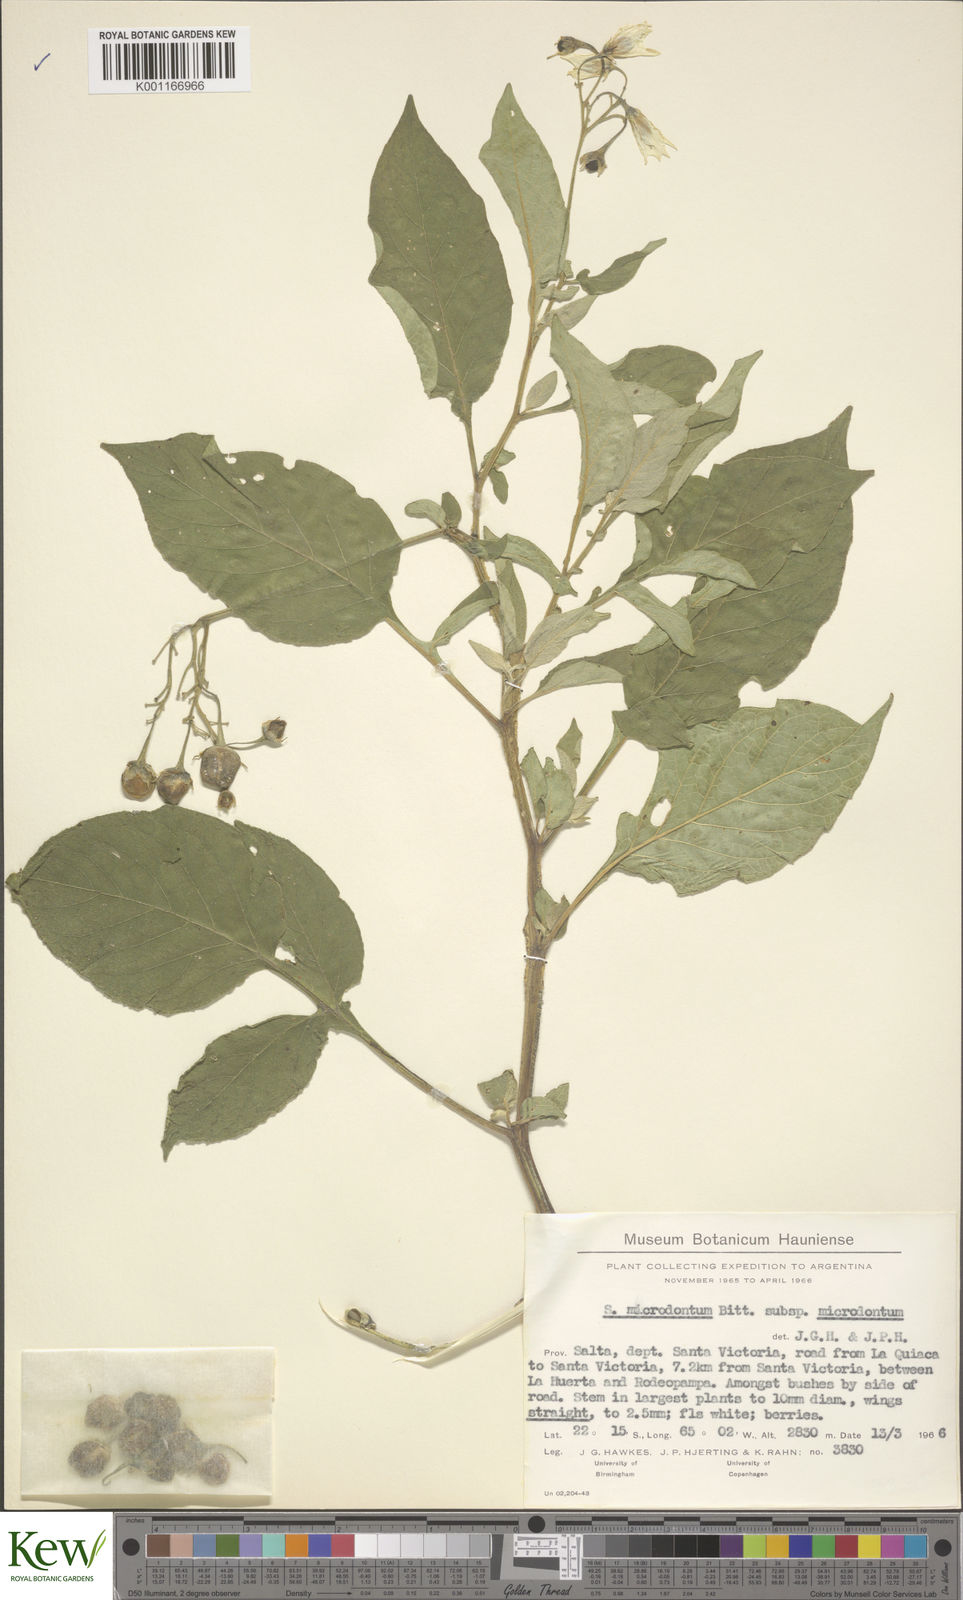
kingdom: Plantae
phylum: Tracheophyta
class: Magnoliopsida
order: Solanales
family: Solanaceae
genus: Solanum
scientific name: Solanum microdontum
